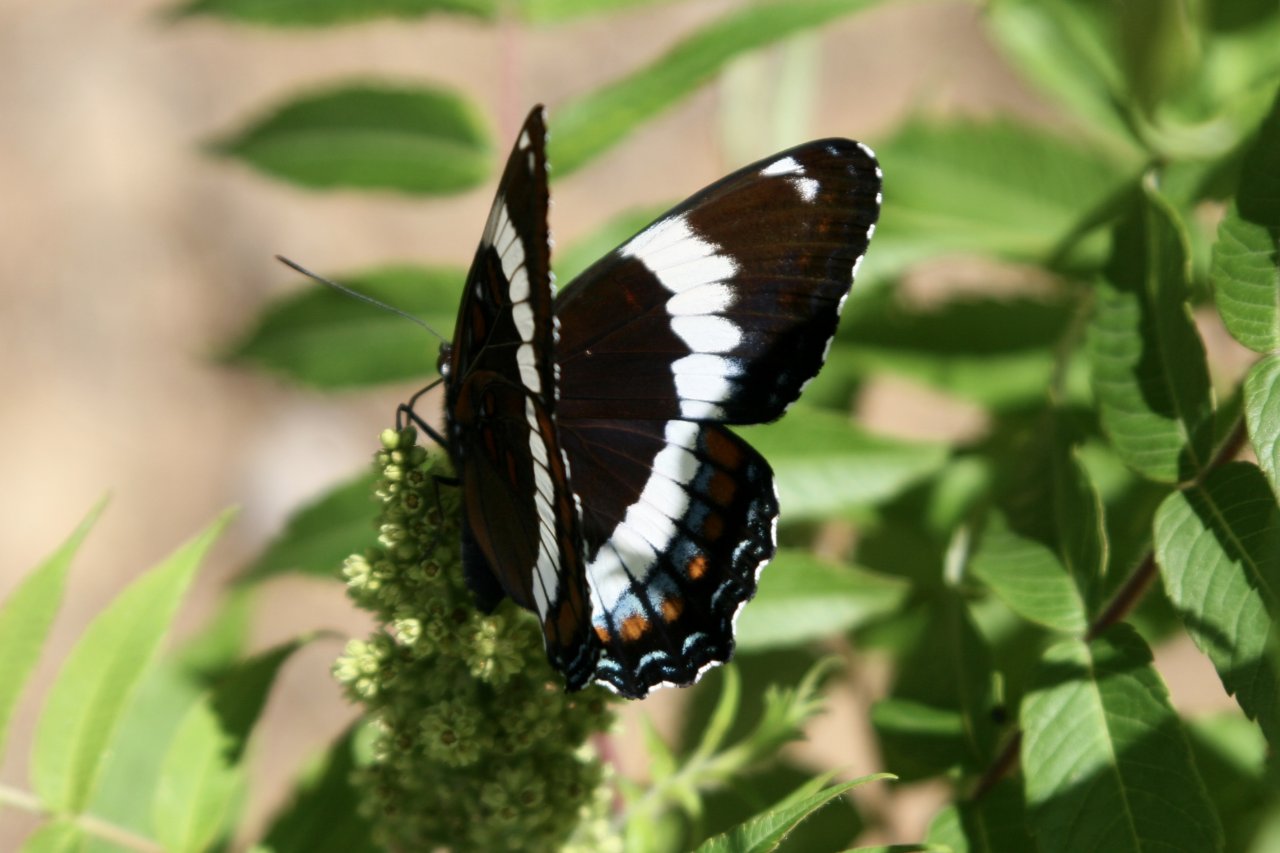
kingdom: Animalia
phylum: Arthropoda
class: Insecta
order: Lepidoptera
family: Nymphalidae
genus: Limenitis
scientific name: Limenitis arthemis
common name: Red-spotted Admiral
